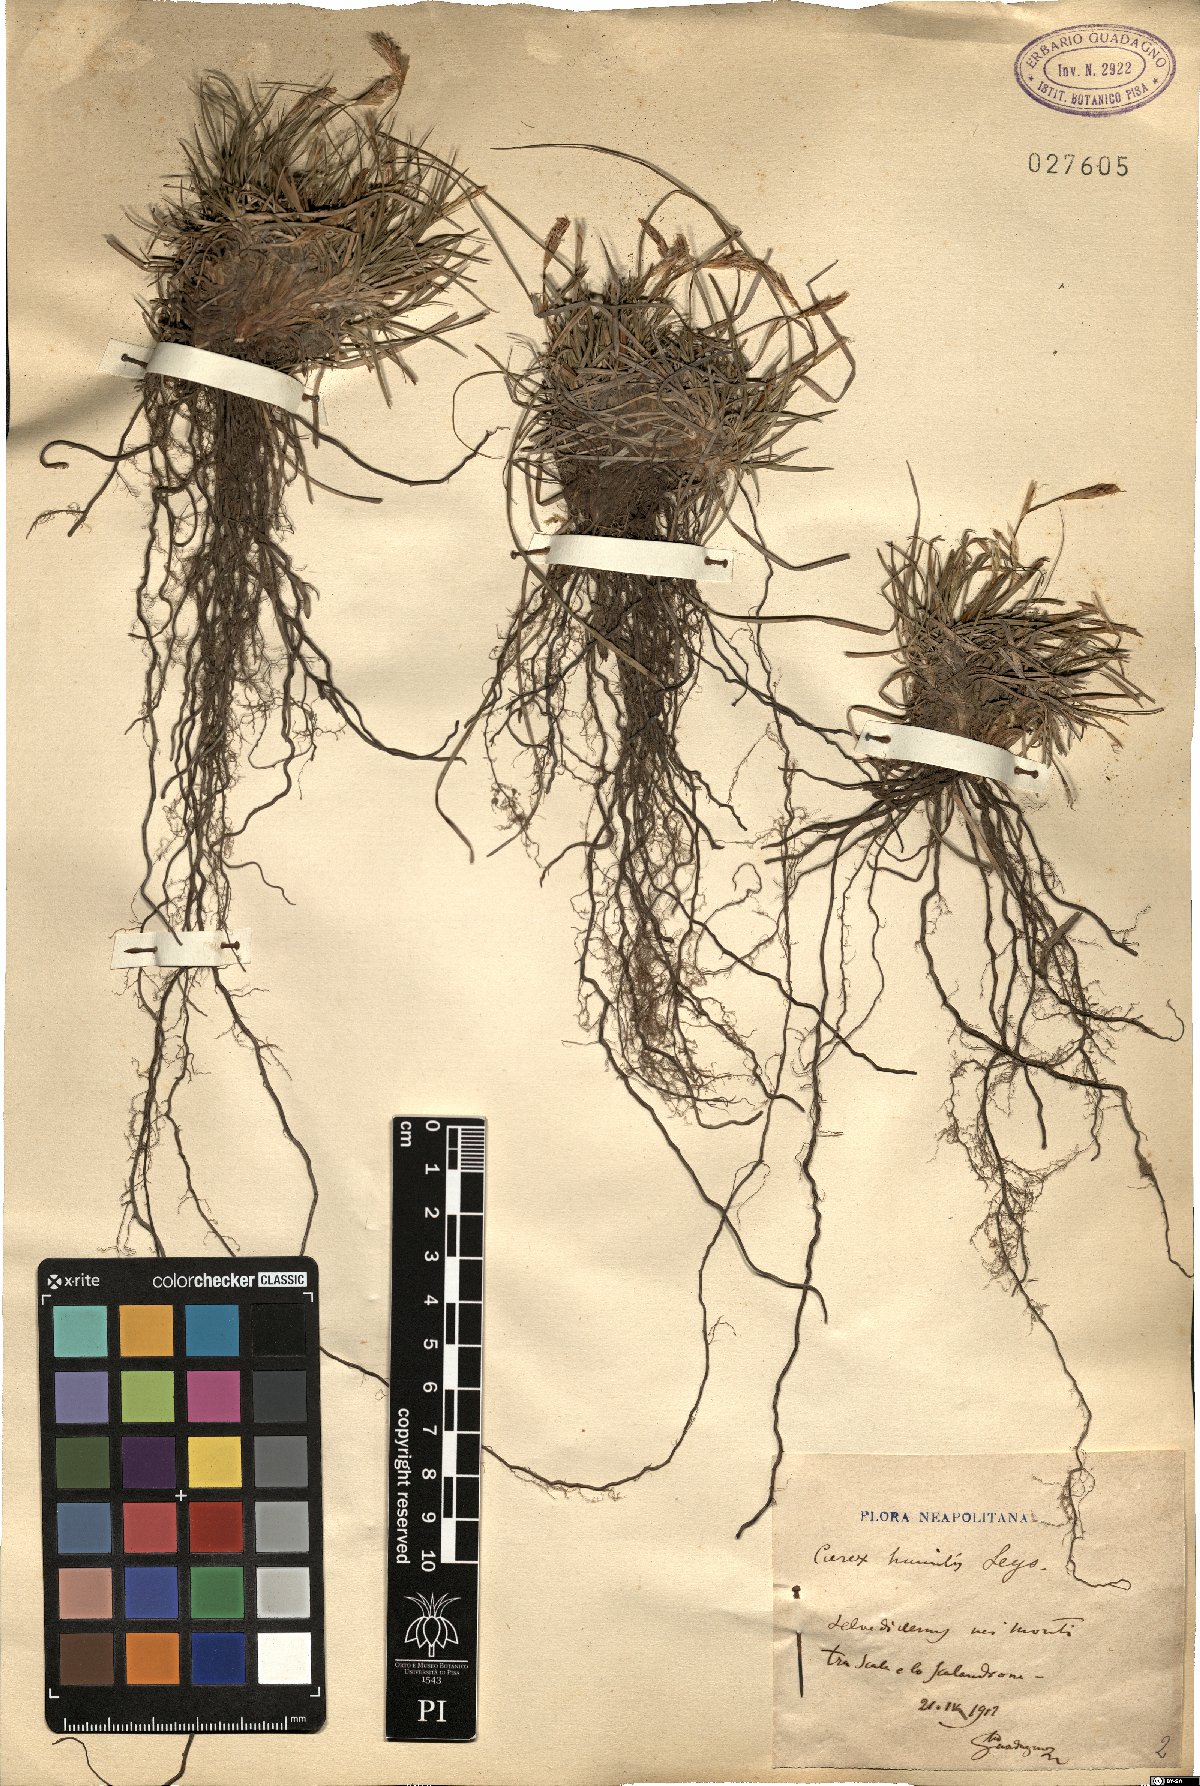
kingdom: Plantae
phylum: Tracheophyta
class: Liliopsida
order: Poales
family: Cyperaceae
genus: Carex
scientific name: Carex humilis
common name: Dwarf sedge
